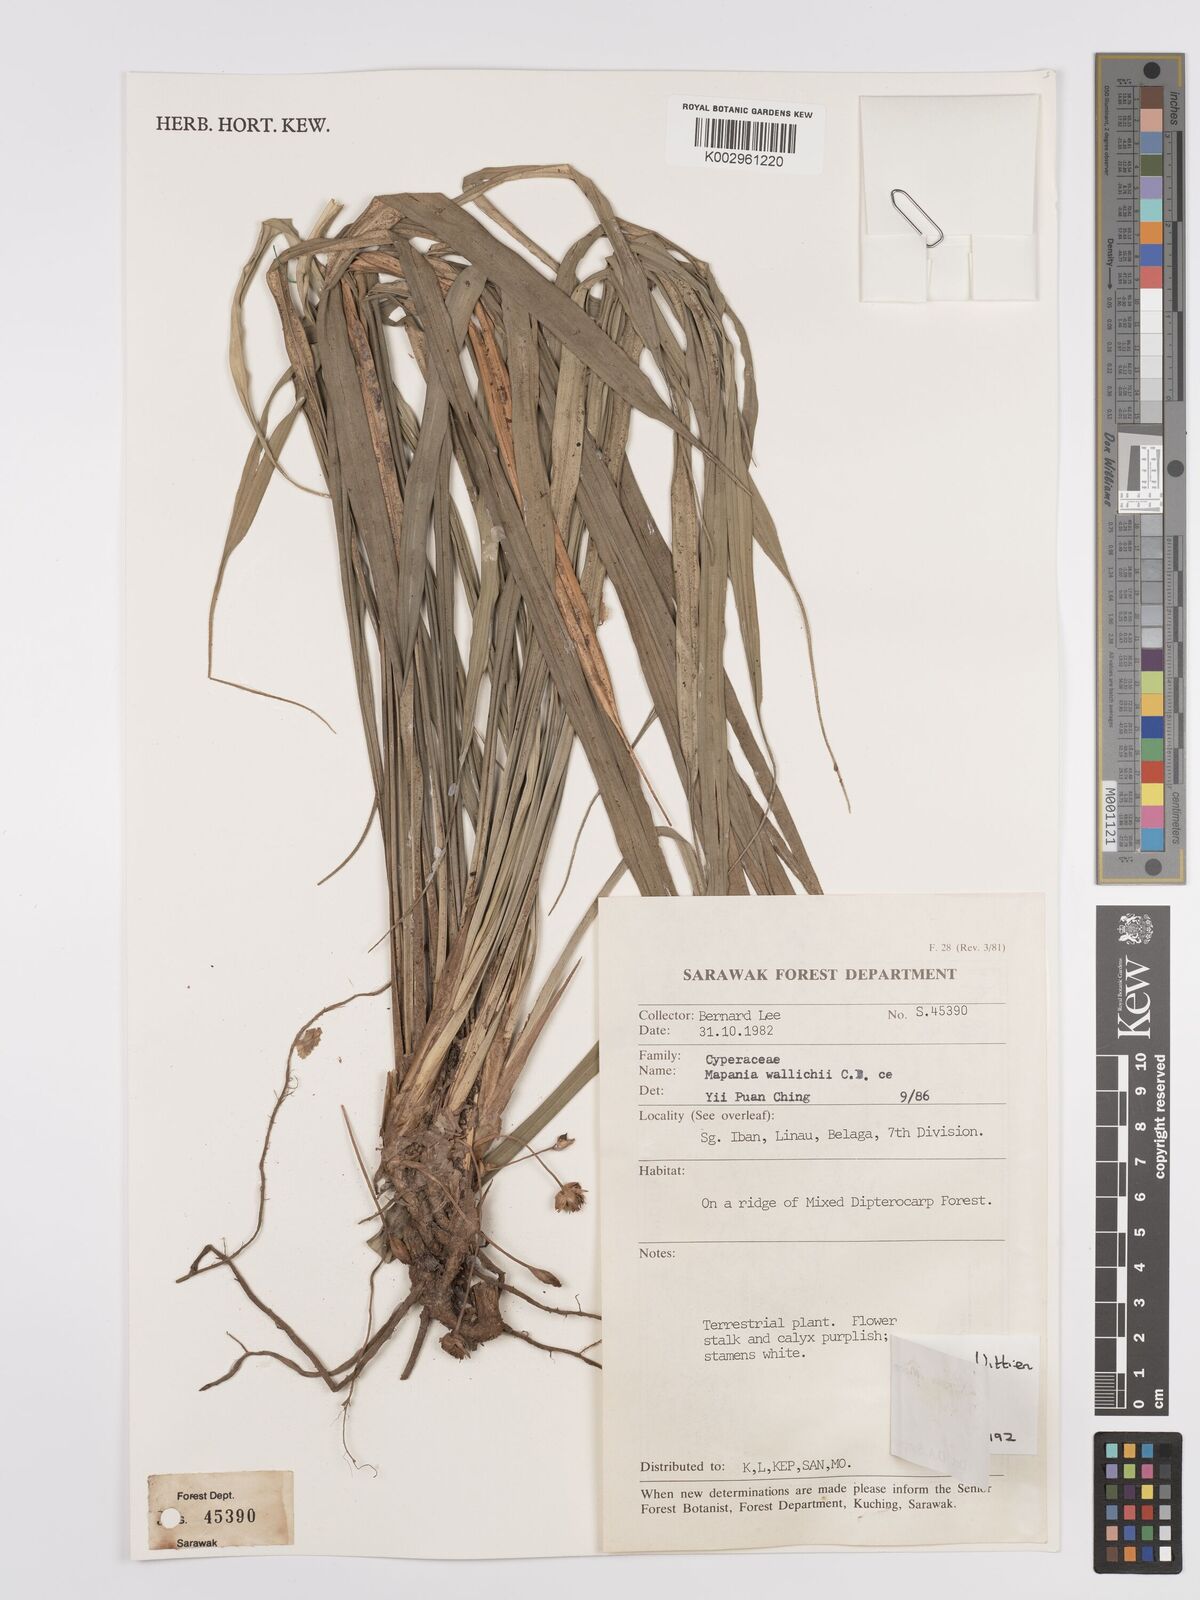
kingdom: Plantae
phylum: Tracheophyta
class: Liliopsida
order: Poales
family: Cyperaceae
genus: Mapania
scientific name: Mapania monostachya
